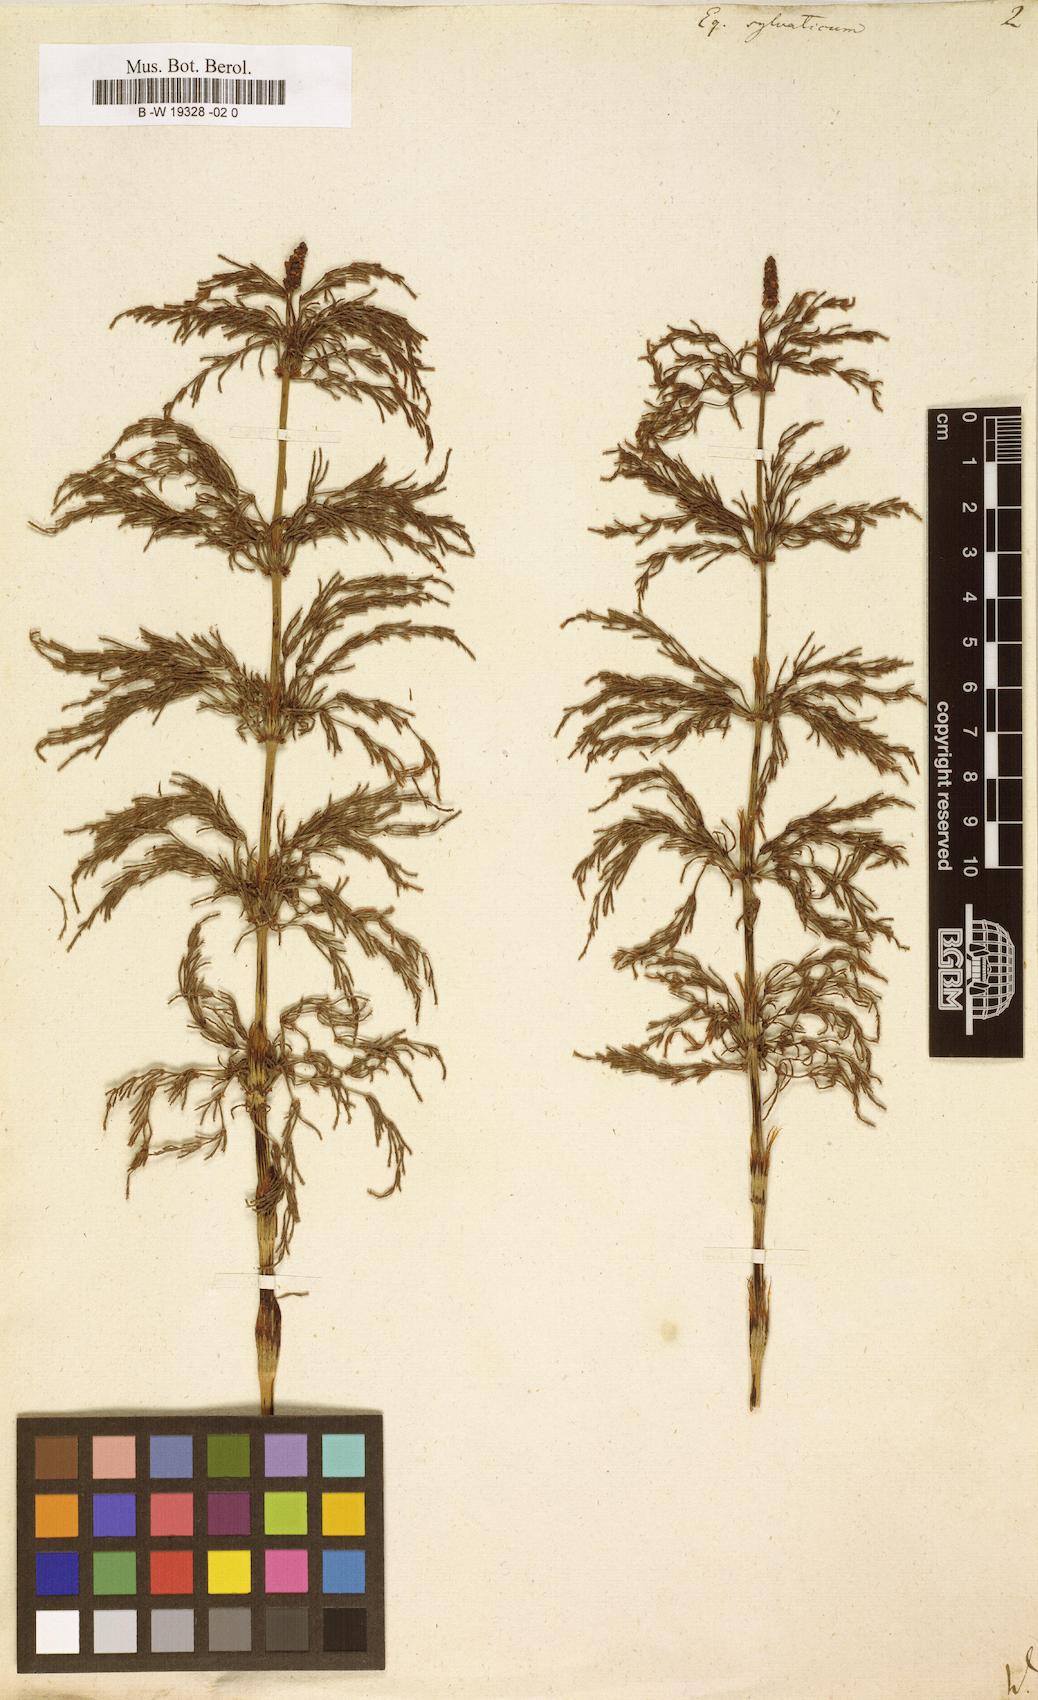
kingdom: Plantae
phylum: Tracheophyta
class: Polypodiopsida
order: Equisetales
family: Equisetaceae
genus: Equisetum
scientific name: Equisetum sylvaticum
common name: Wood horsetail
